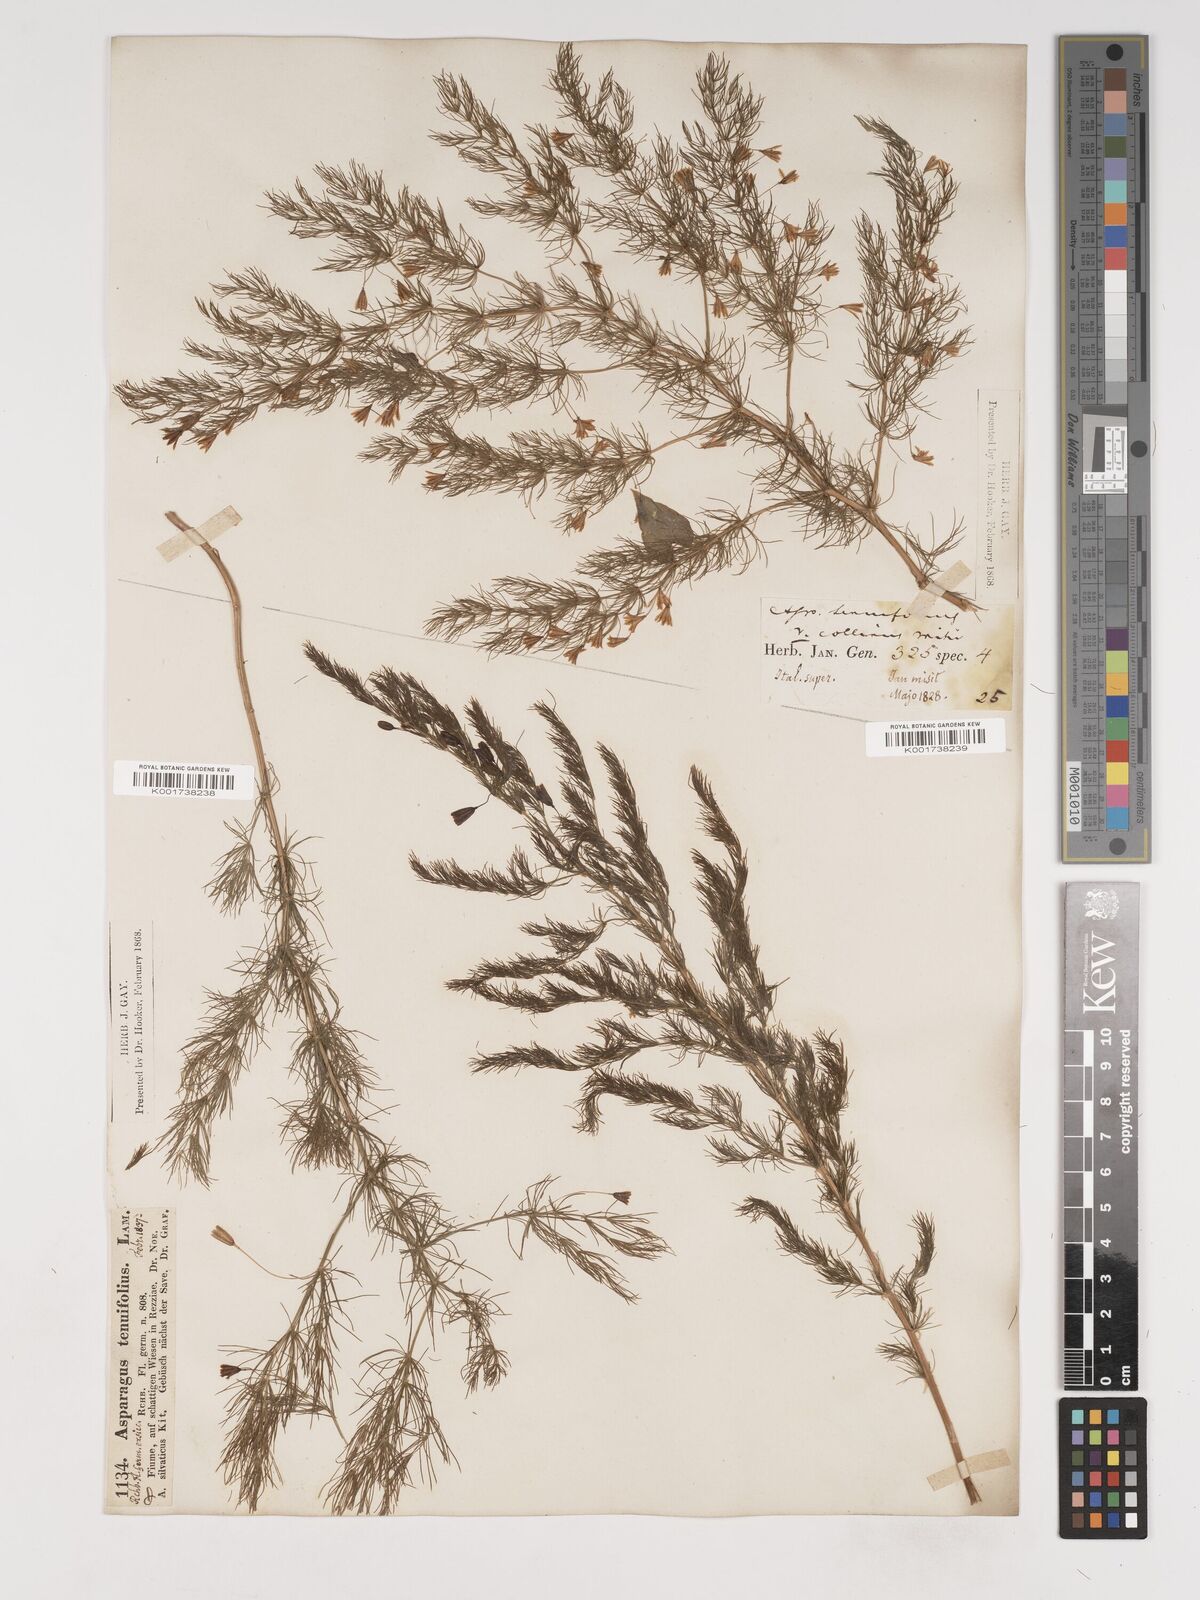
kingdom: Plantae
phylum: Tracheophyta
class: Liliopsida
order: Asparagales
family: Asparagaceae
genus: Asparagus
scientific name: Asparagus tenuifolius
